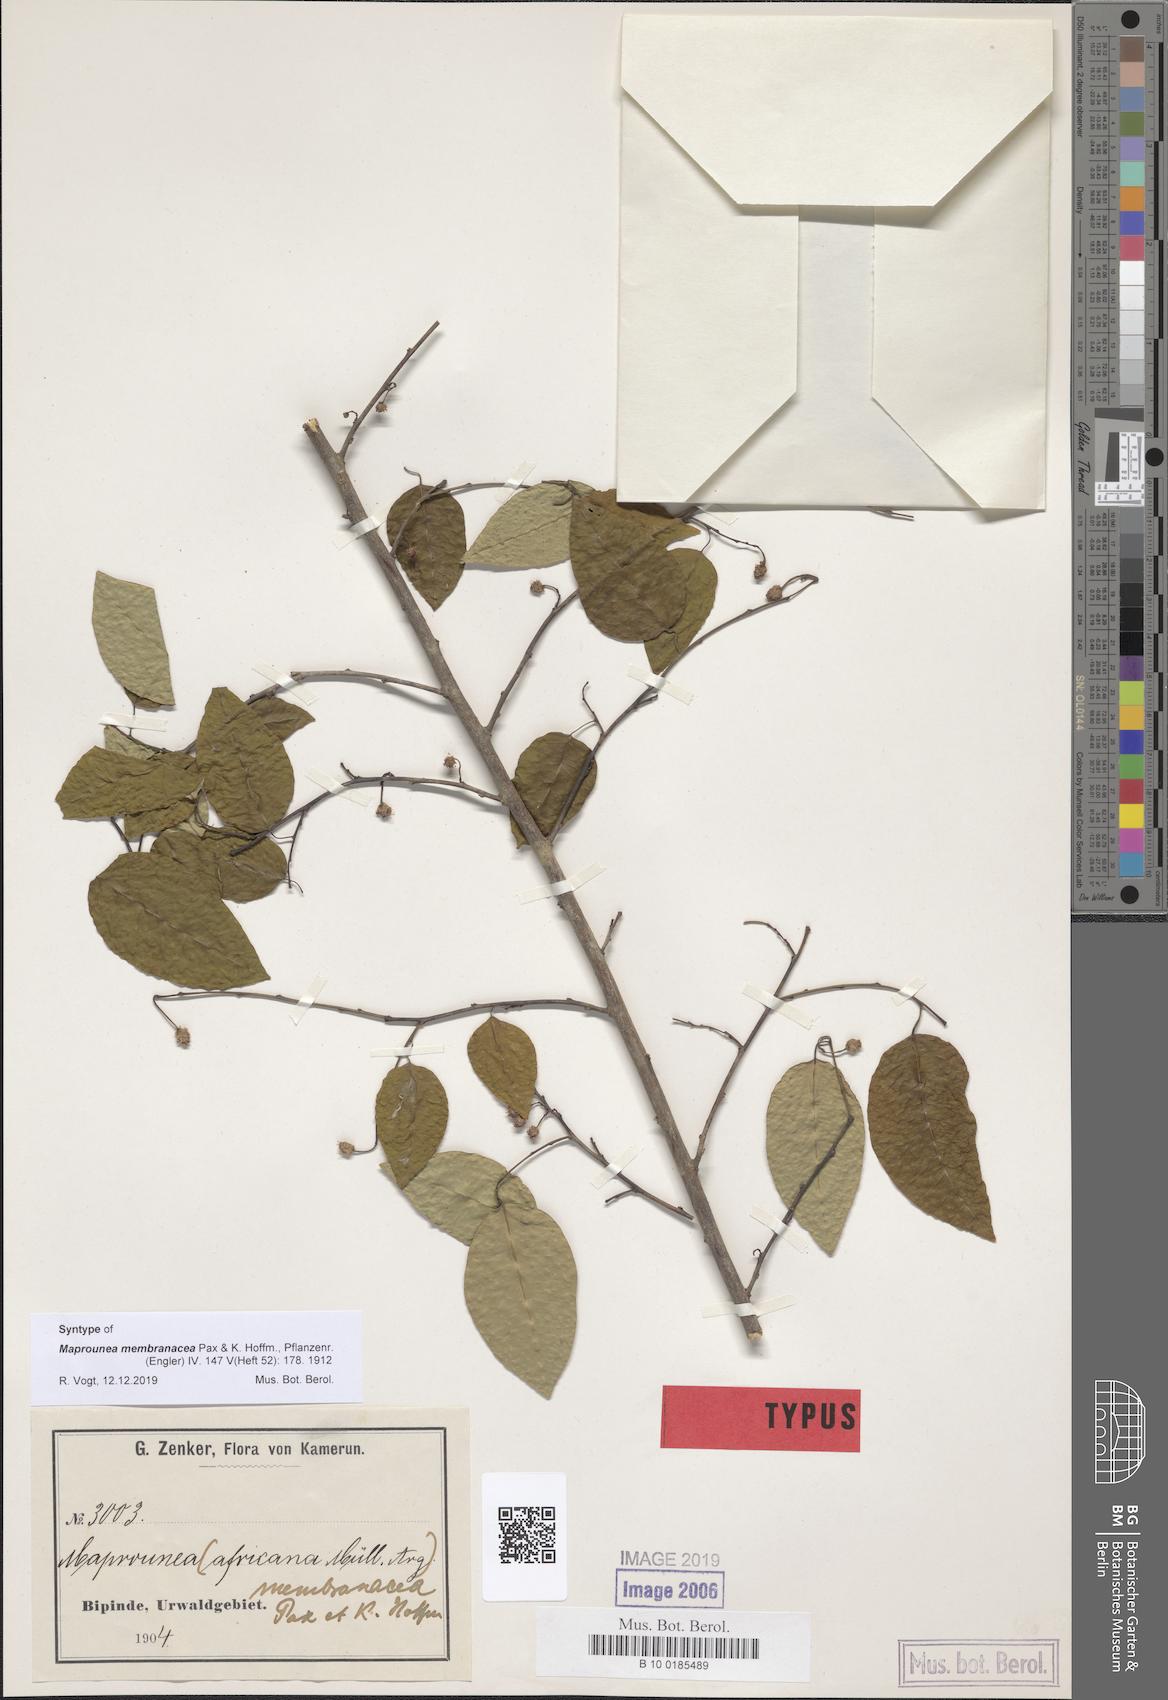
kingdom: Plantae
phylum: Tracheophyta
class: Magnoliopsida
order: Malpighiales
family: Euphorbiaceae
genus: Maprounea
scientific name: Maprounea membranacea
